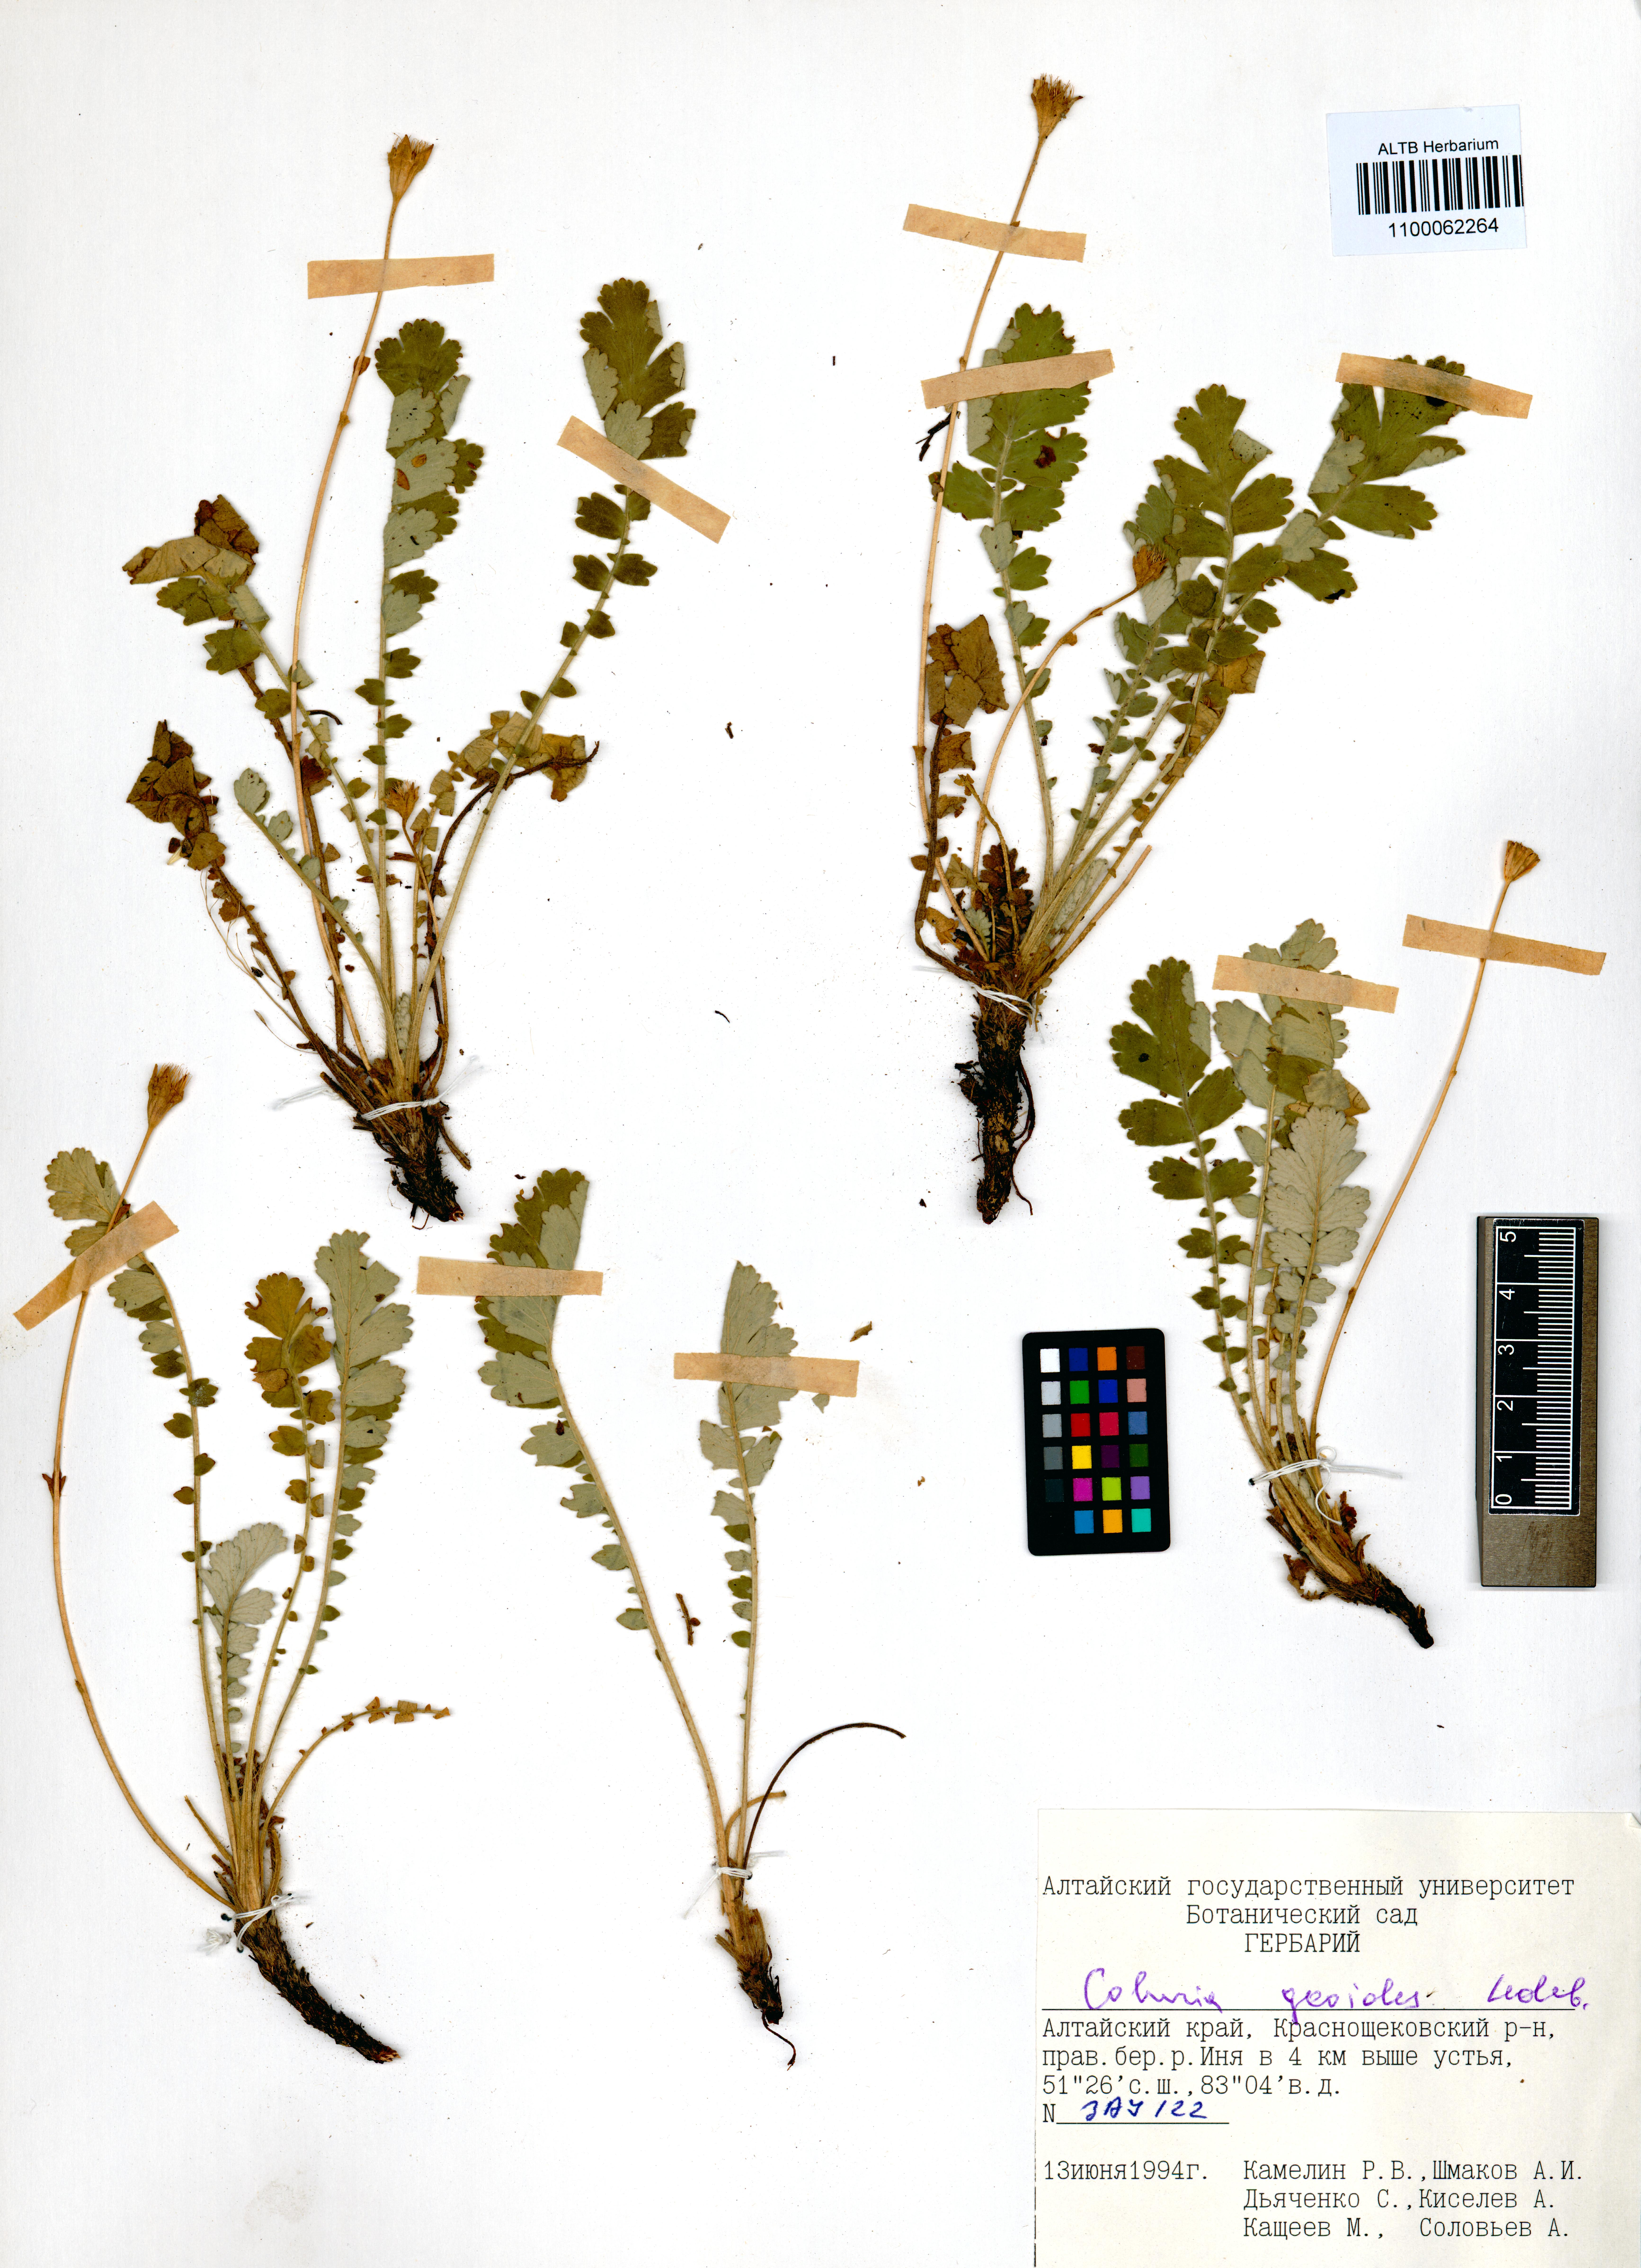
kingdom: Plantae
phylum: Tracheophyta
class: Magnoliopsida
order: Rosales
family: Rosaceae
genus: Geum
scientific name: Geum geoides
